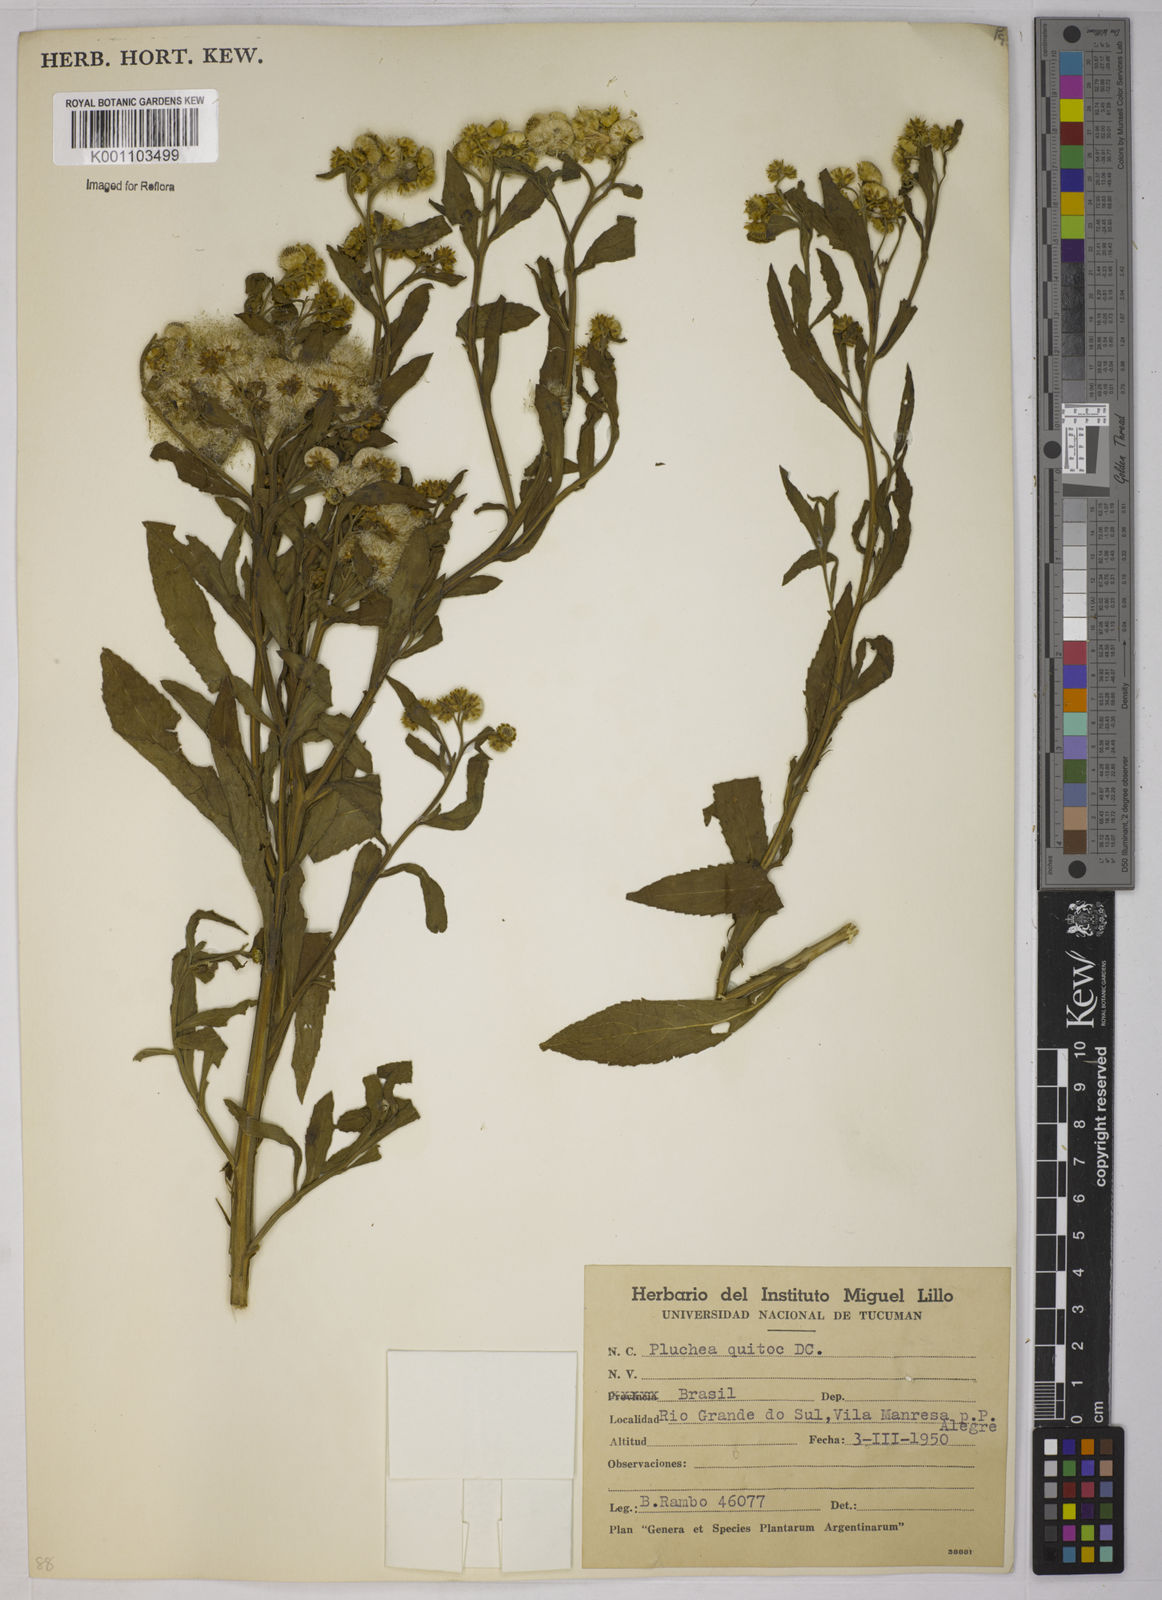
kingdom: Plantae
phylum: Tracheophyta
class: Magnoliopsida
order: Asterales
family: Asteraceae
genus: Pluchea
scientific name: Pluchea sagittalis
